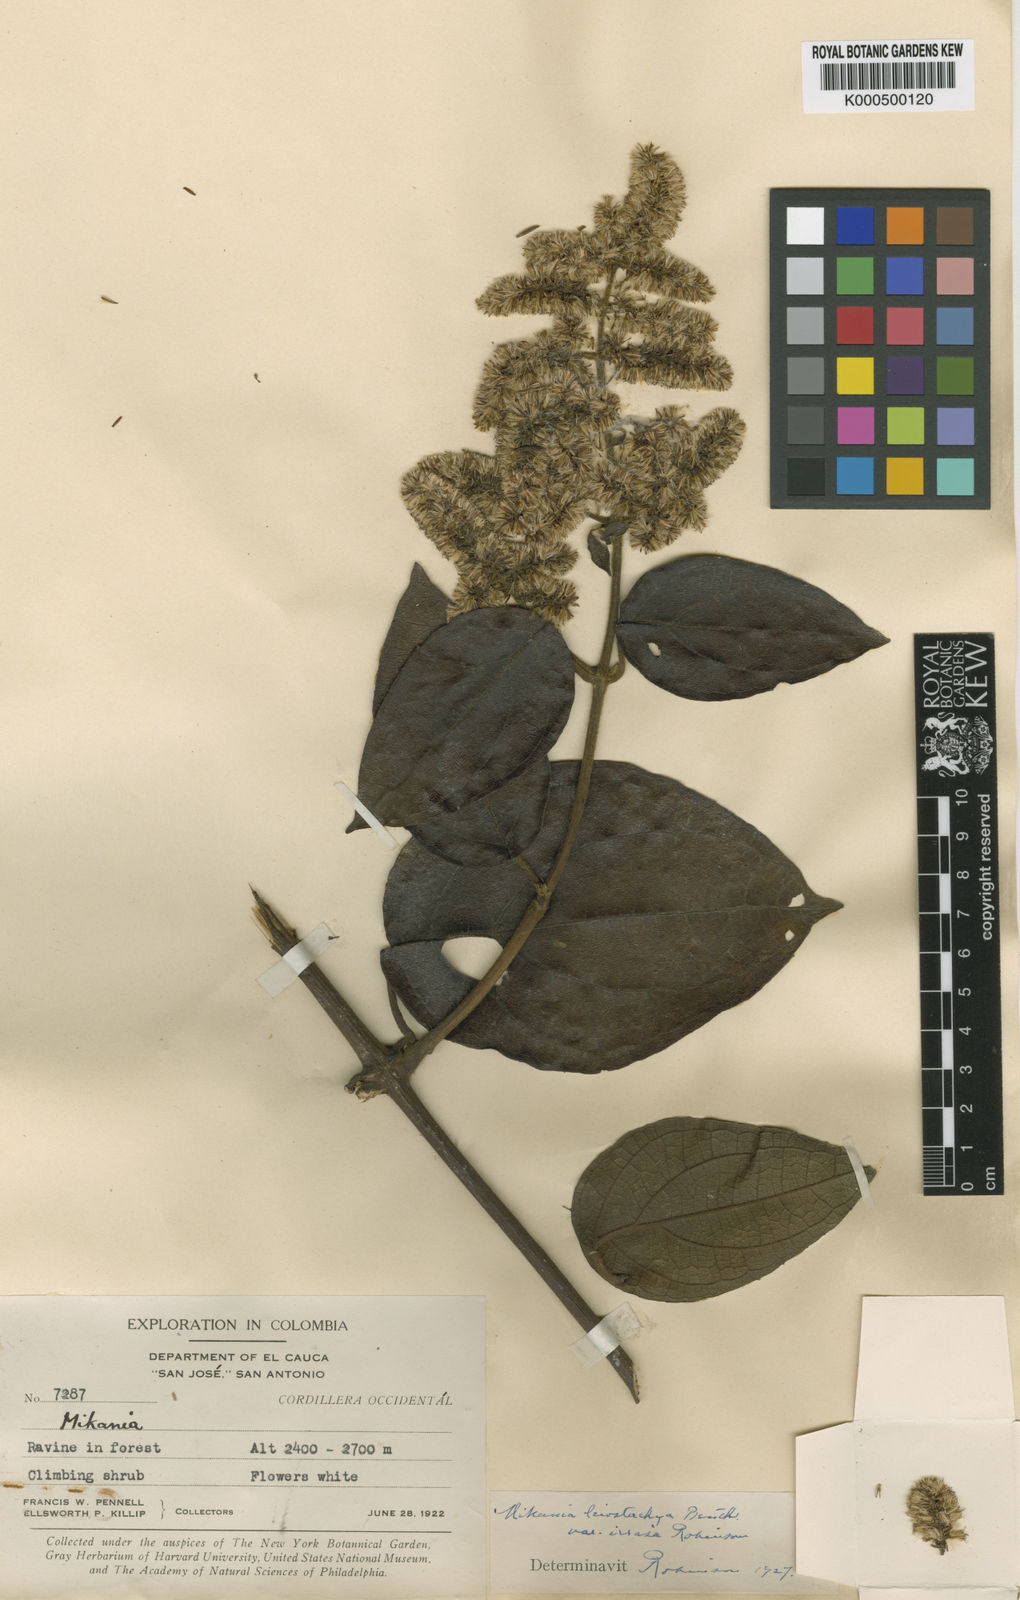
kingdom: Plantae
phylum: Tracheophyta
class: Magnoliopsida
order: Asterales
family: Asteraceae
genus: Mikania
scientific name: Mikania leiostachya
